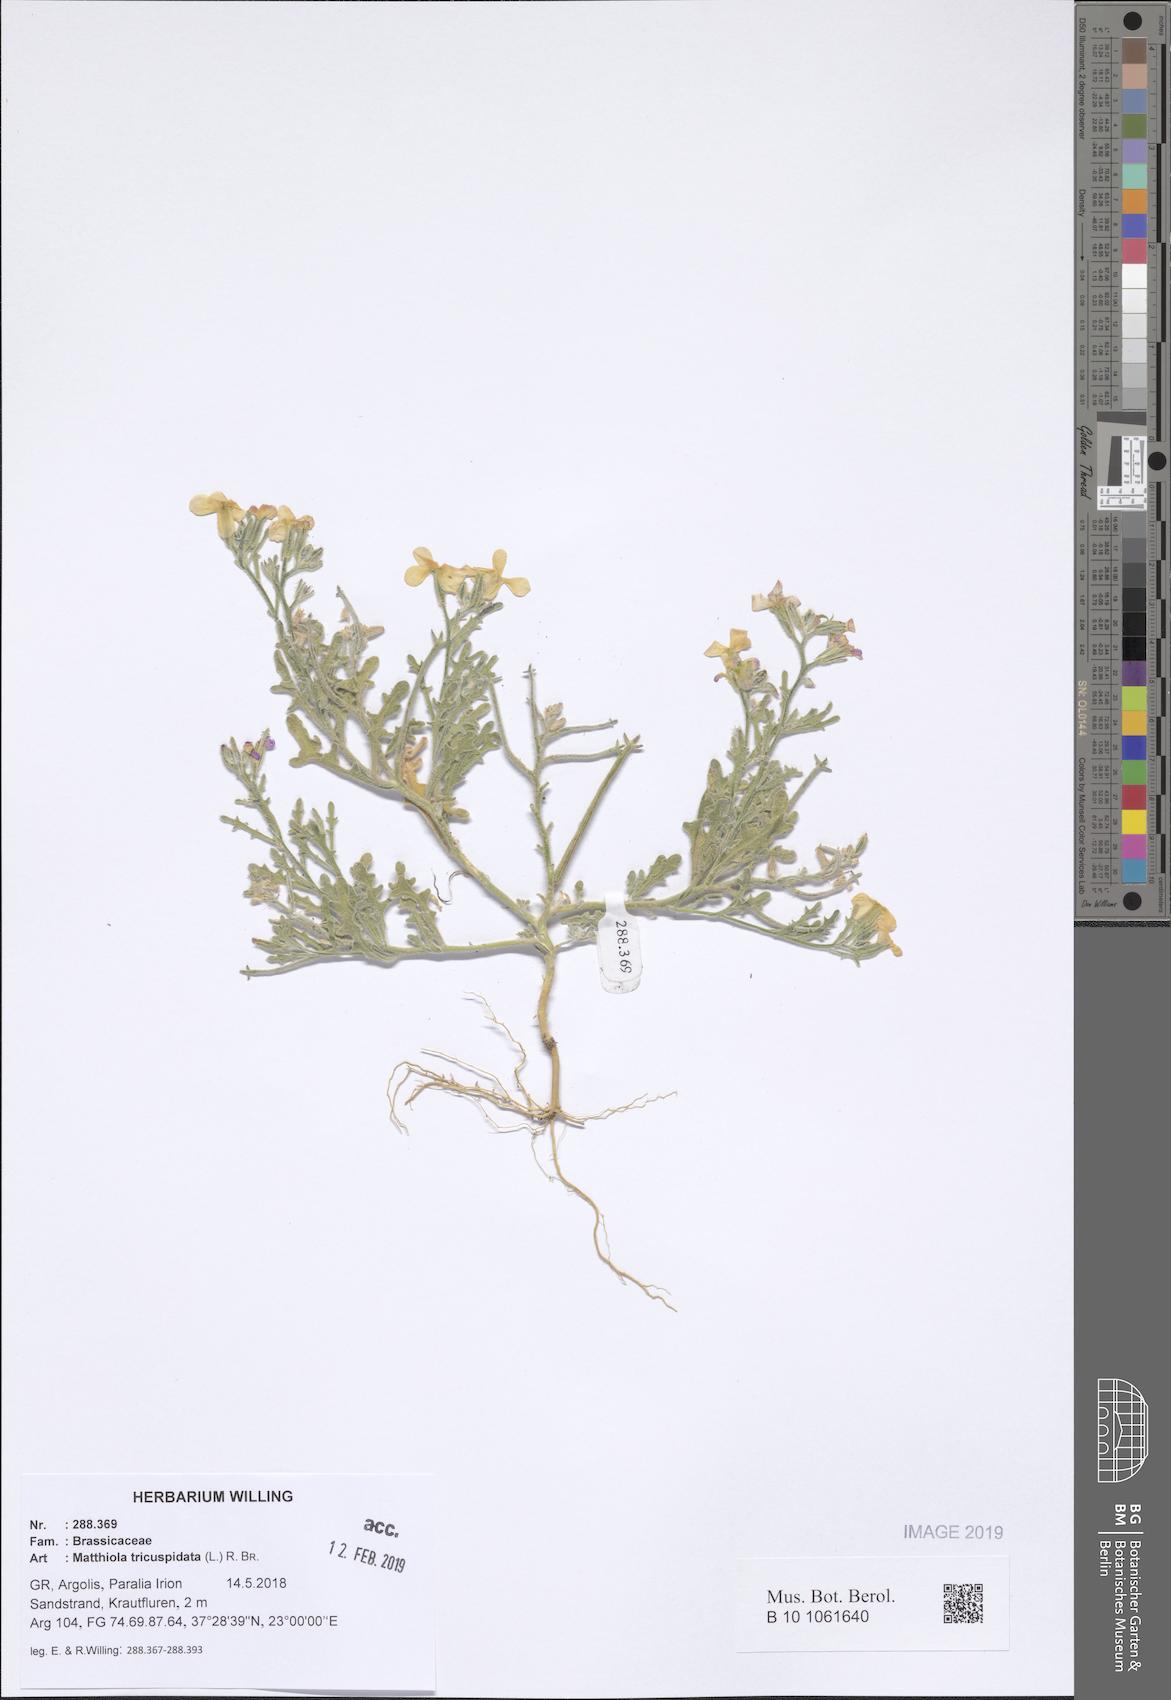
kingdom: Plantae
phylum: Tracheophyta
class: Magnoliopsida
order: Brassicales
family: Brassicaceae
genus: Matthiola
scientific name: Matthiola tricuspidata
